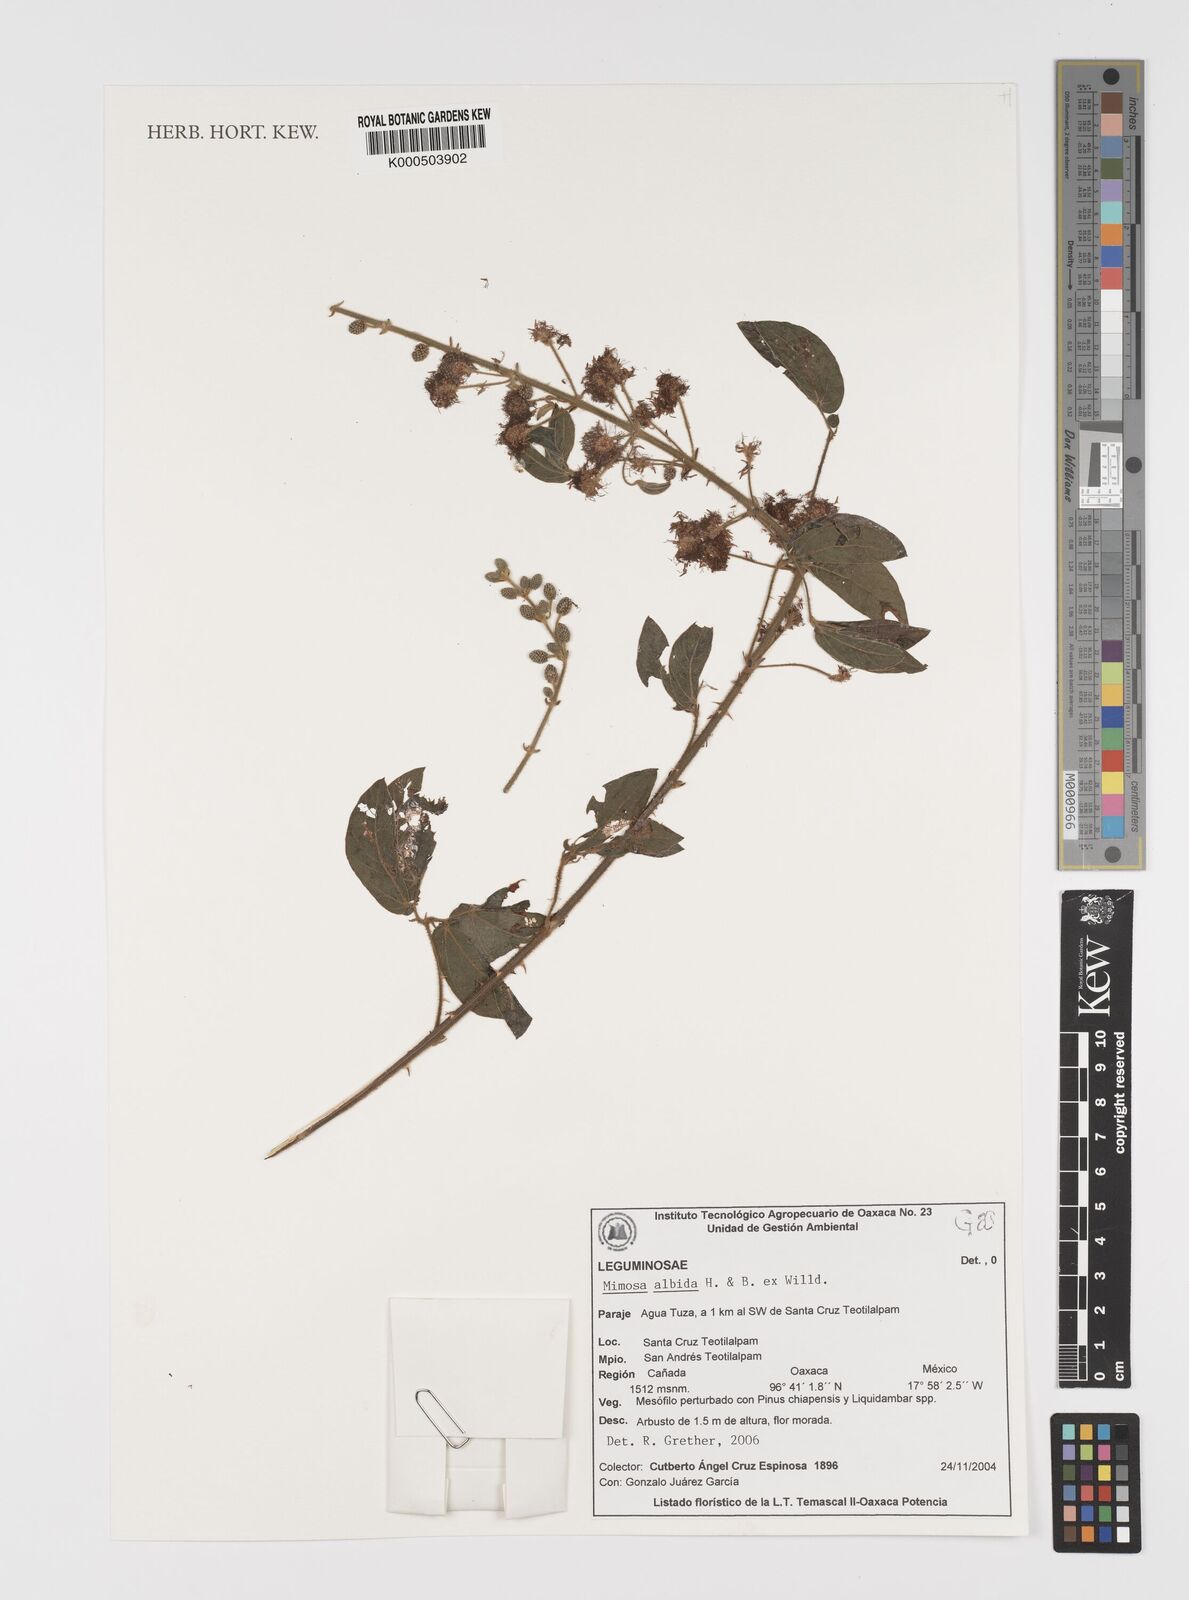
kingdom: Plantae
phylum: Tracheophyta
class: Magnoliopsida
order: Fabales
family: Fabaceae
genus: Mimosa
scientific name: Mimosa albida
